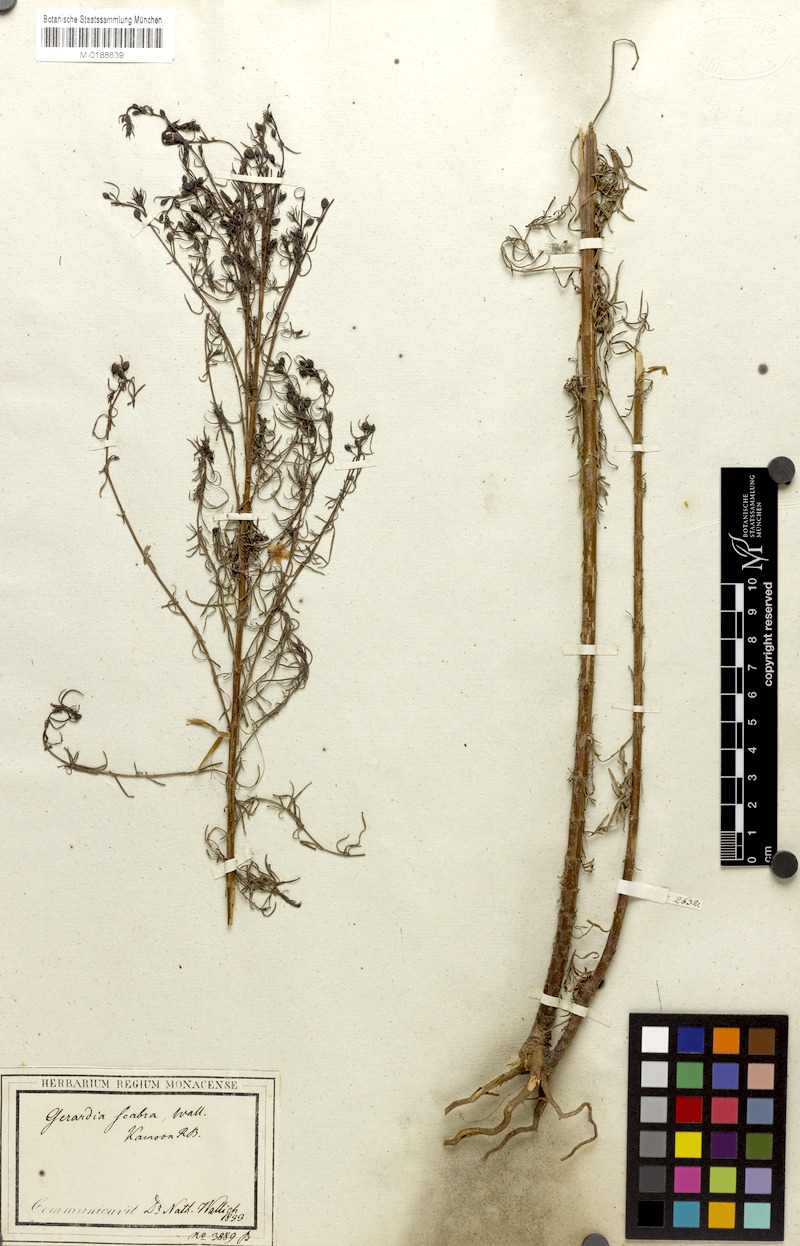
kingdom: Plantae
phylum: Tracheophyta
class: Magnoliopsida
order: Lamiales
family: Orobanchaceae
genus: Sopubia
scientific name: Sopubia trifida
